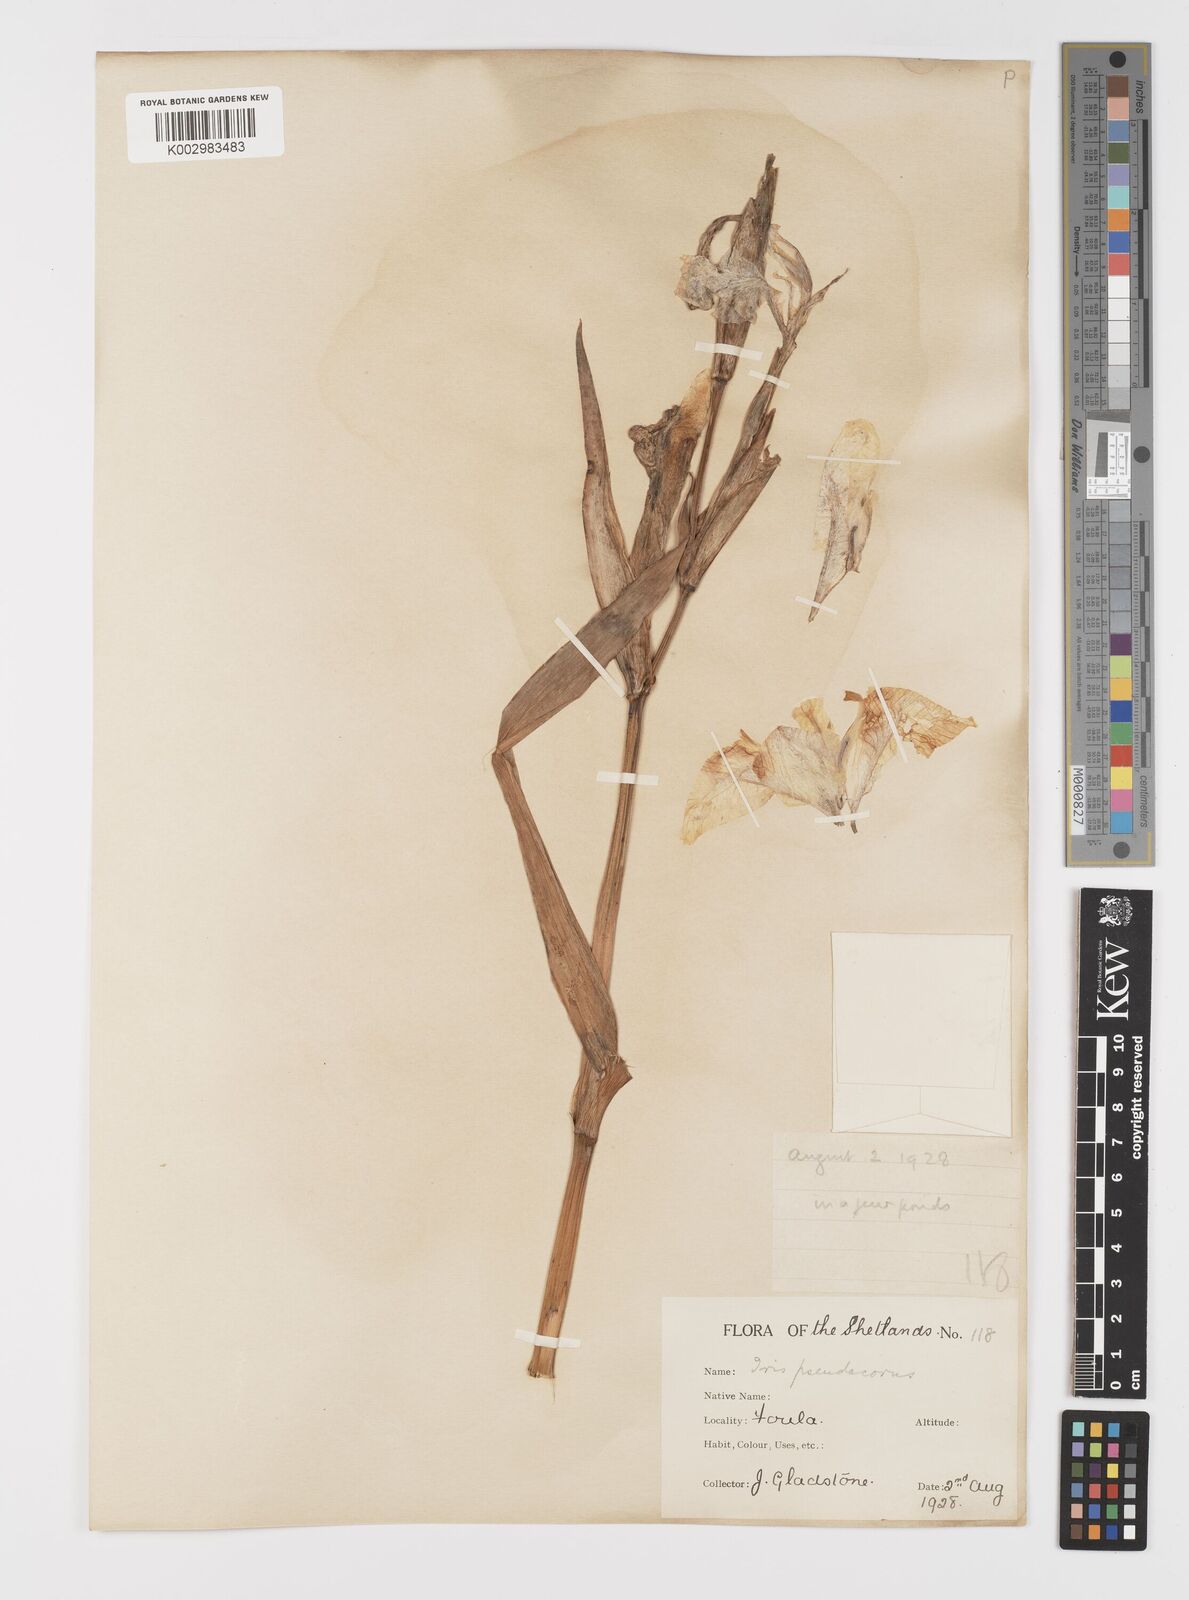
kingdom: Plantae
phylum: Tracheophyta
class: Liliopsida
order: Asparagales
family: Iridaceae
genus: Iris
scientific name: Iris pseudacorus
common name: Yellow flag
